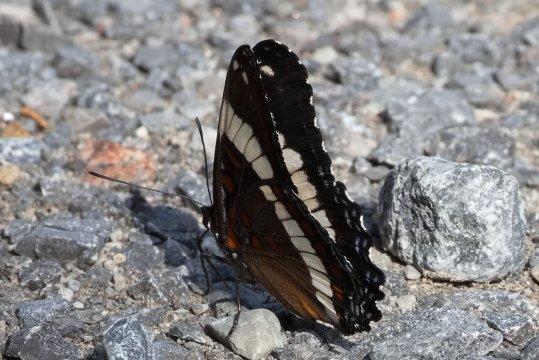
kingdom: Animalia
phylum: Arthropoda
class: Insecta
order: Lepidoptera
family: Nymphalidae
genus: Limenitis
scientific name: Limenitis arthemis
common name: Red-spotted Admiral
